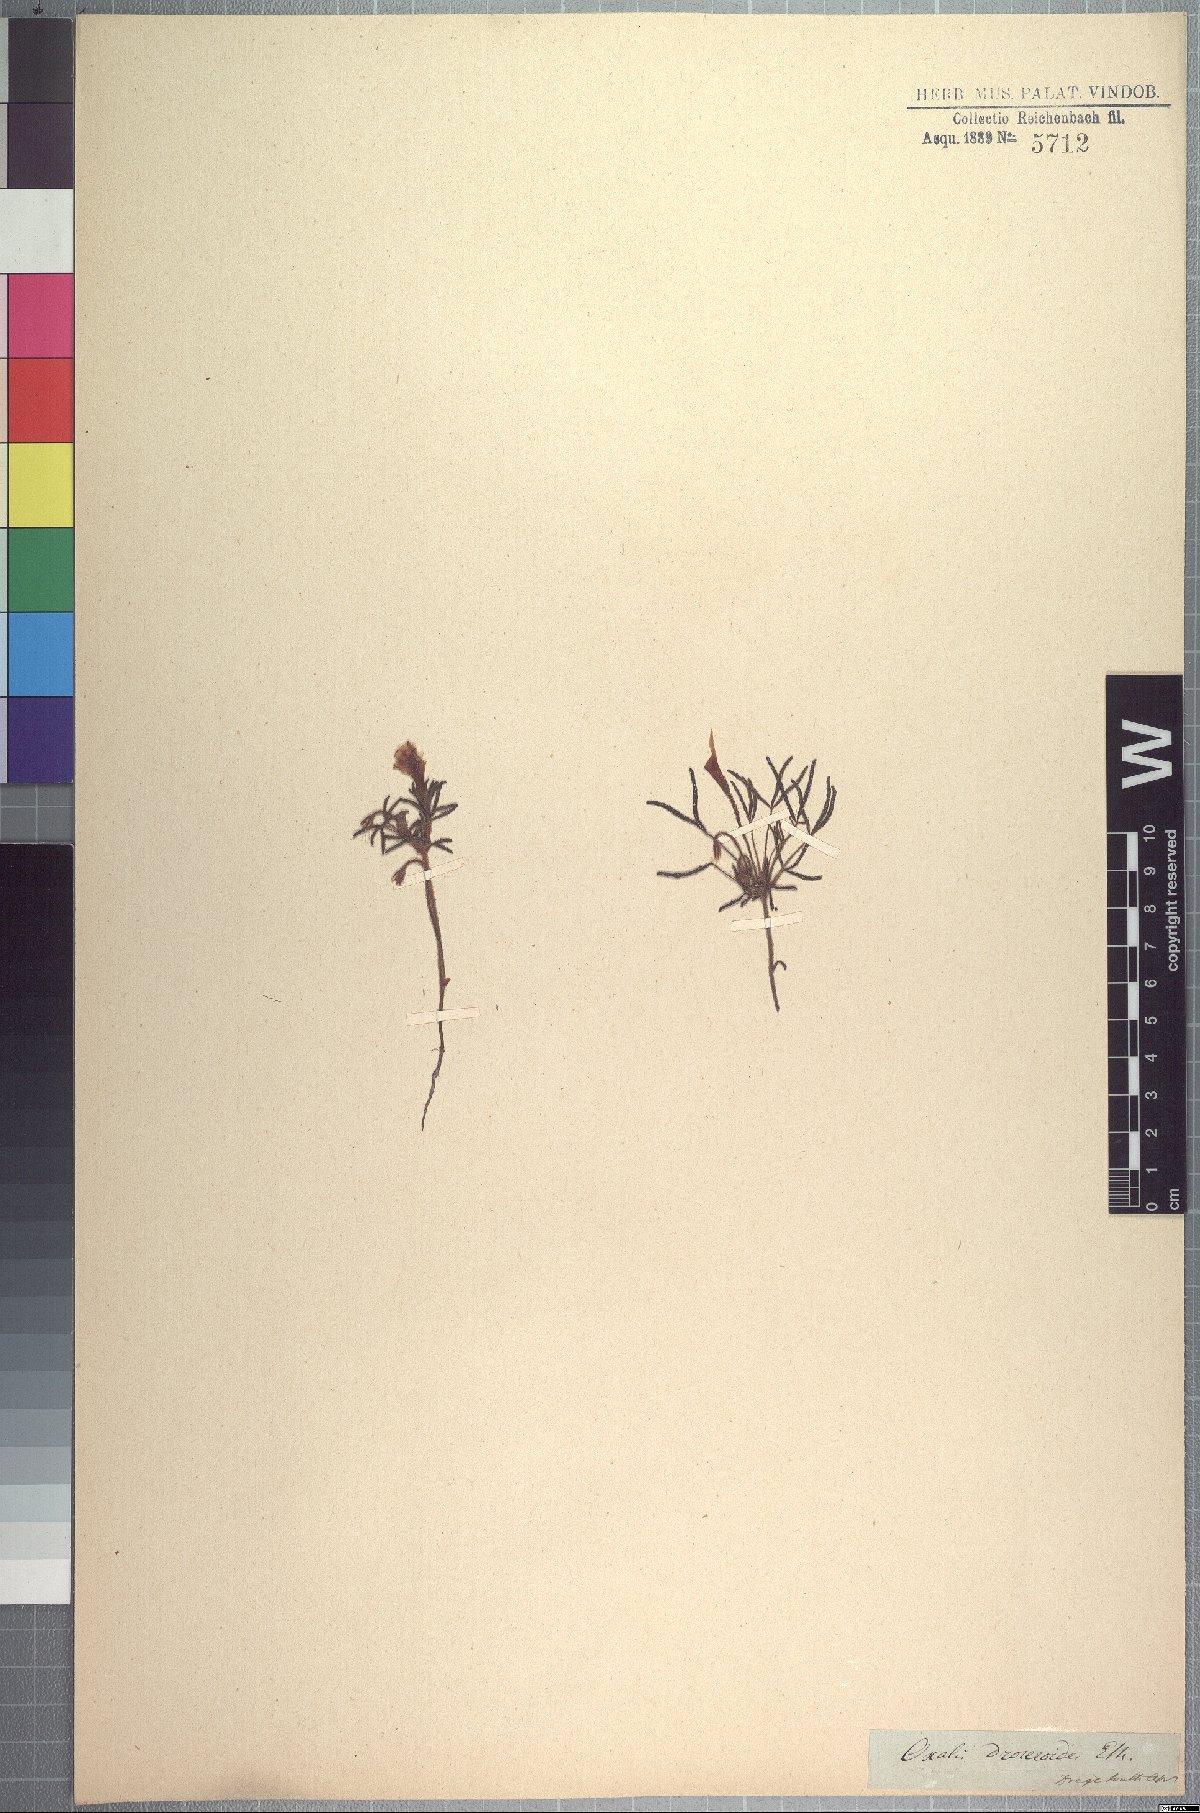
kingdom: Plantae
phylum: Tracheophyta
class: Magnoliopsida
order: Oxalidales
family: Oxalidaceae
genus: Oxalis
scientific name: Oxalis droseroides
